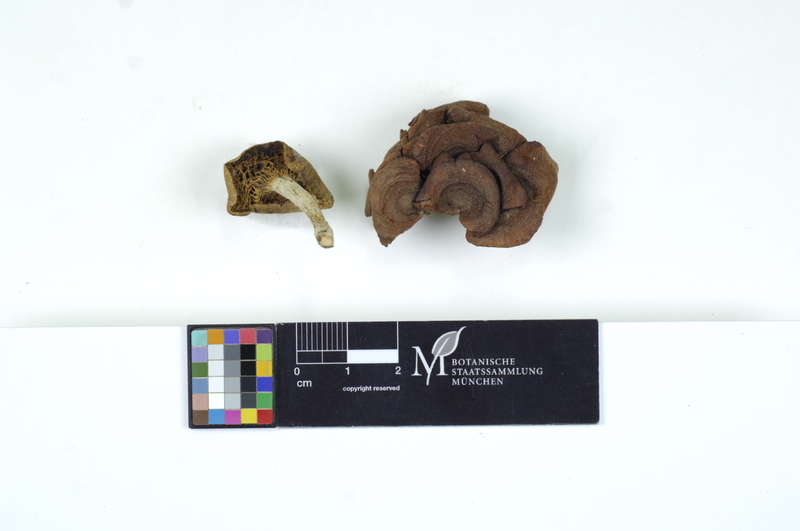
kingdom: Plantae
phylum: Tracheophyta
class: Magnoliopsida
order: Fagales
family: Betulaceae
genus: Alnus
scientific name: Alnus
